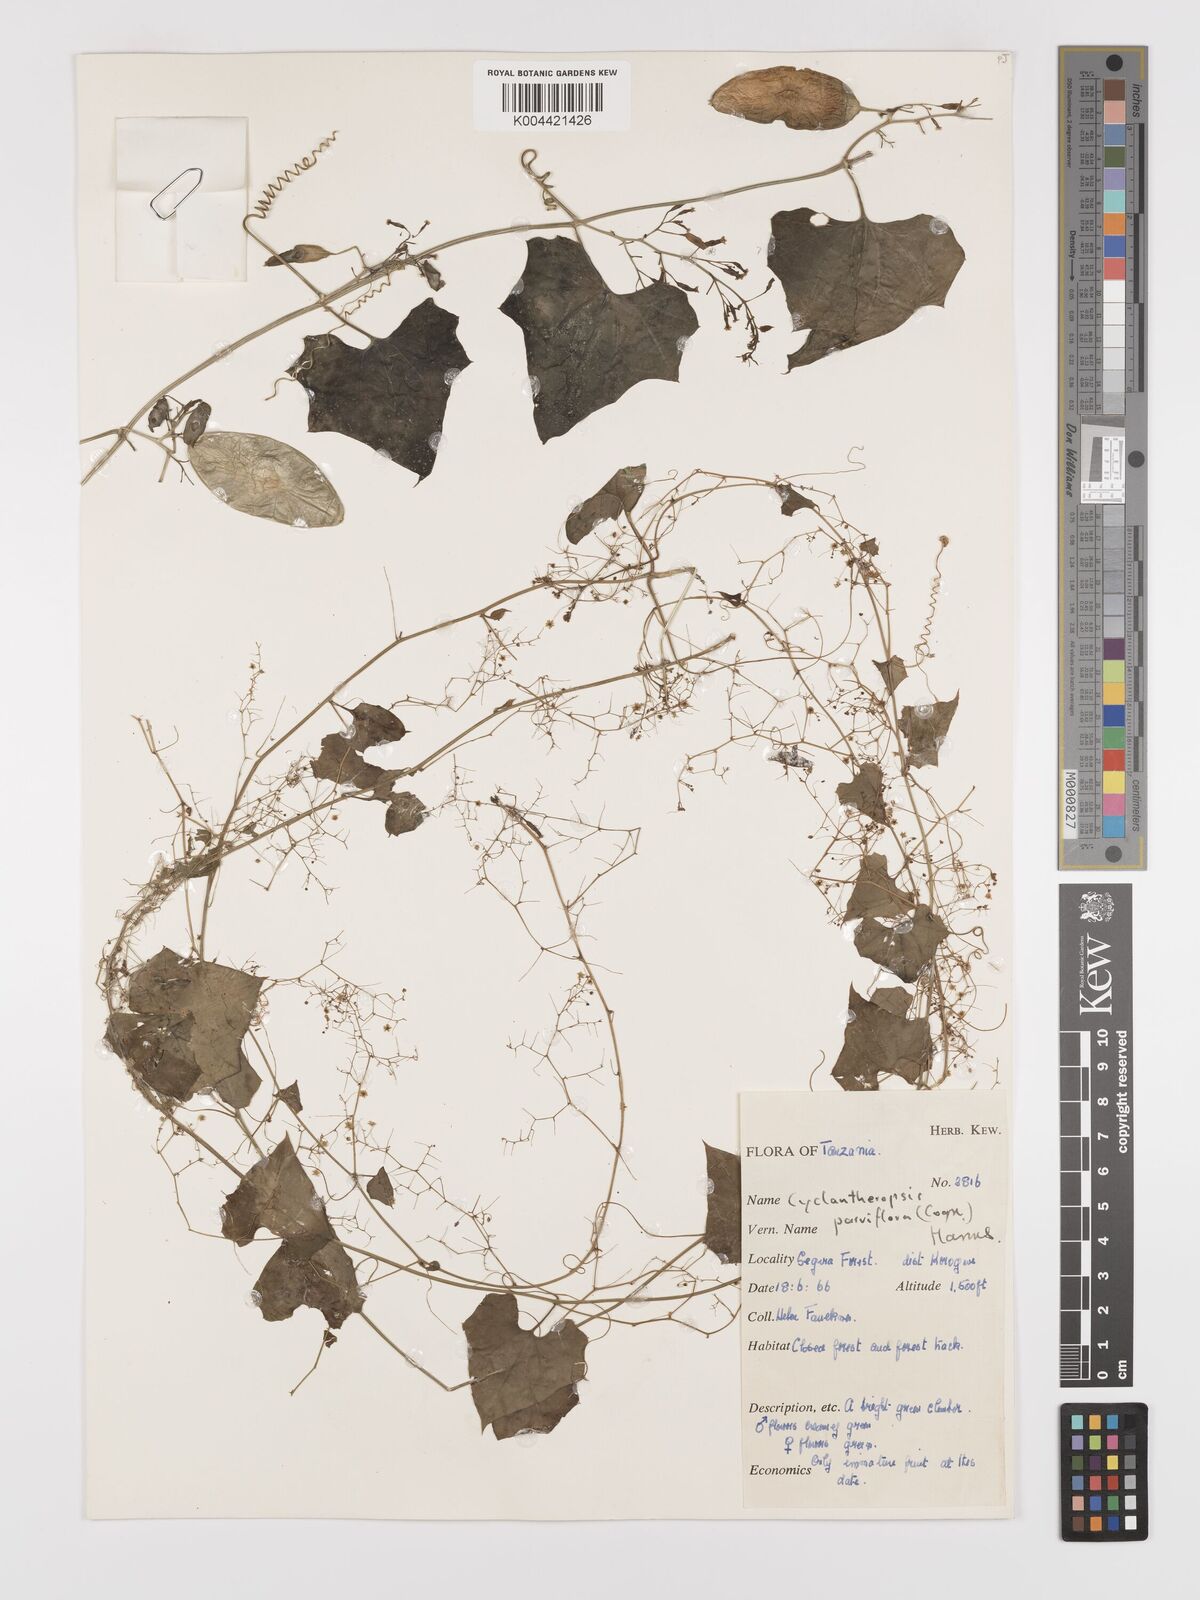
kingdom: Plantae
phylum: Tracheophyta
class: Magnoliopsida
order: Cucurbitales
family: Cucurbitaceae
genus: Cyclantheropsis
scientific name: Cyclantheropsis parviflora
